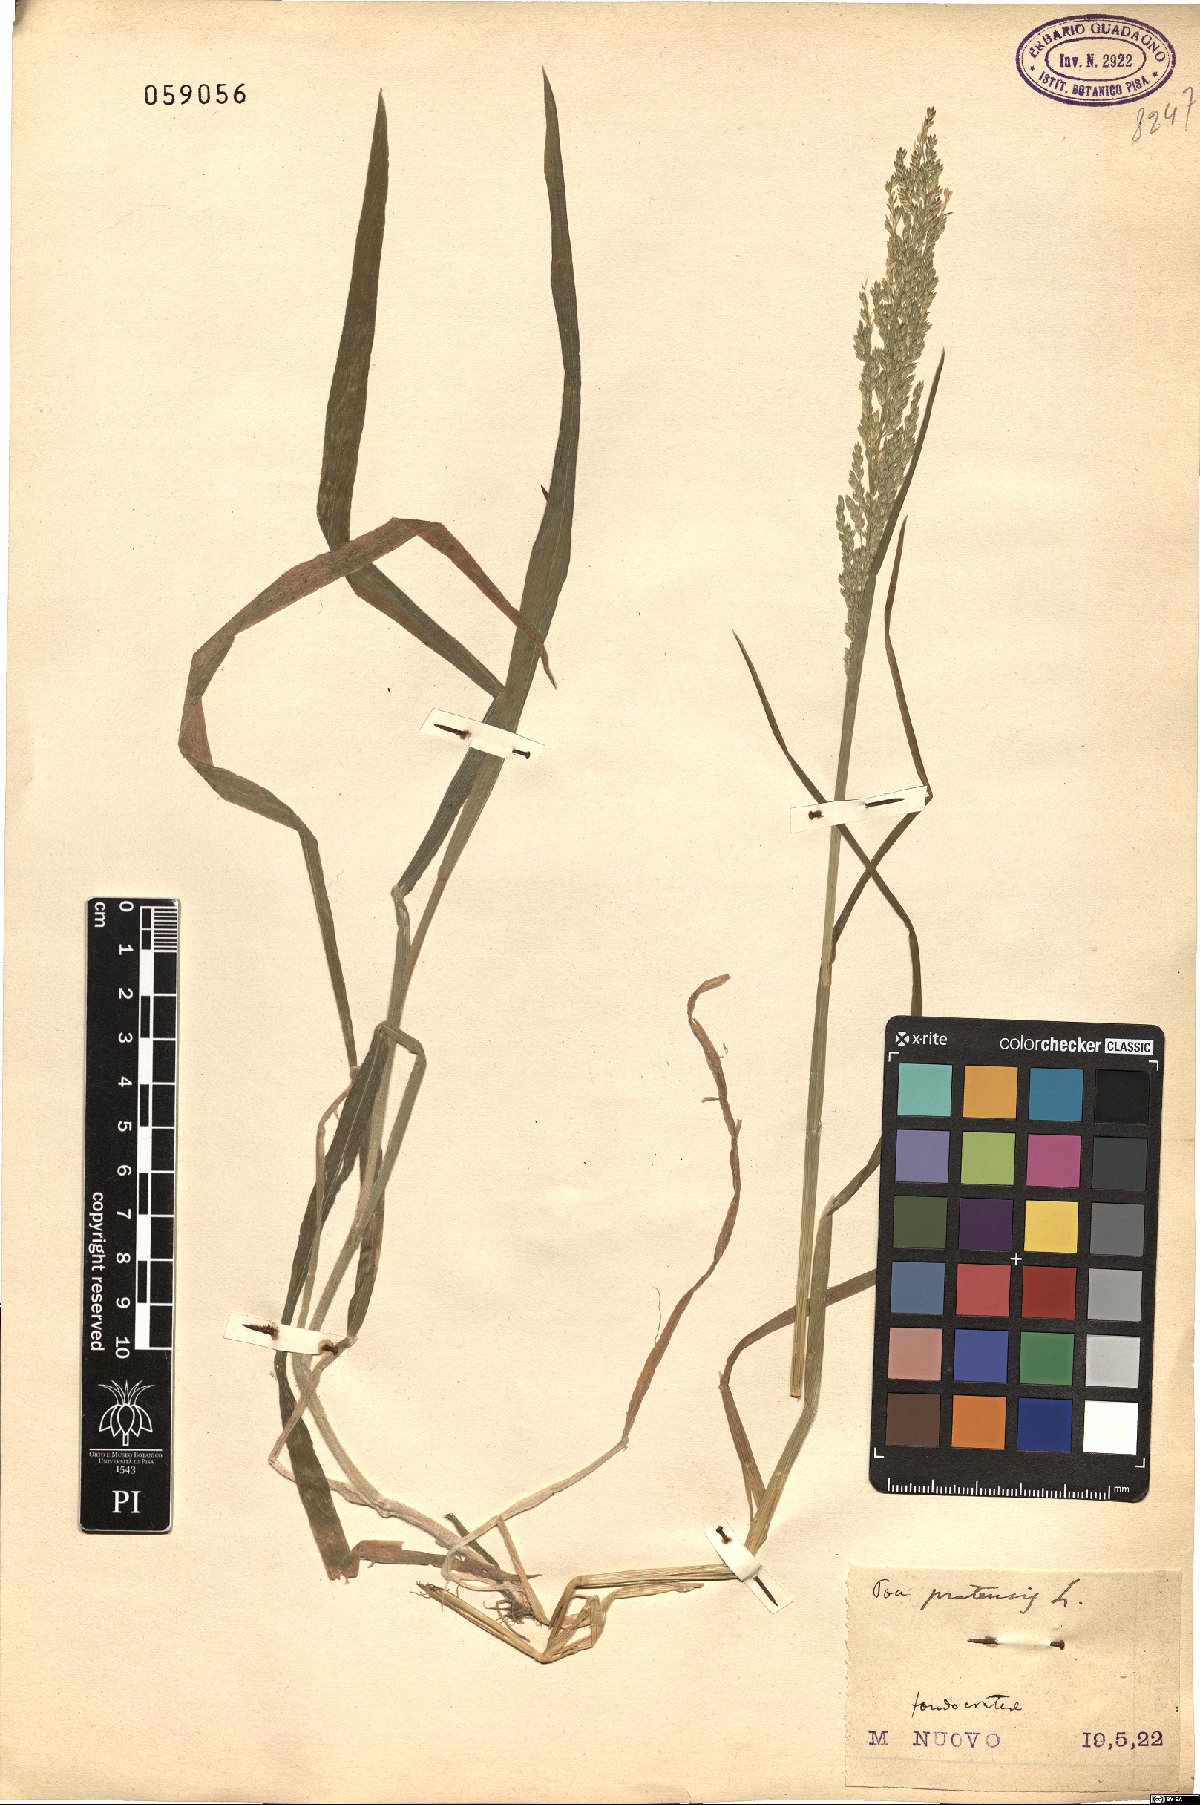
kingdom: Plantae
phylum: Tracheophyta
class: Liliopsida
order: Poales
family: Poaceae
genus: Poa
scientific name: Poa pratensis
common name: Kentucky bluegrass
